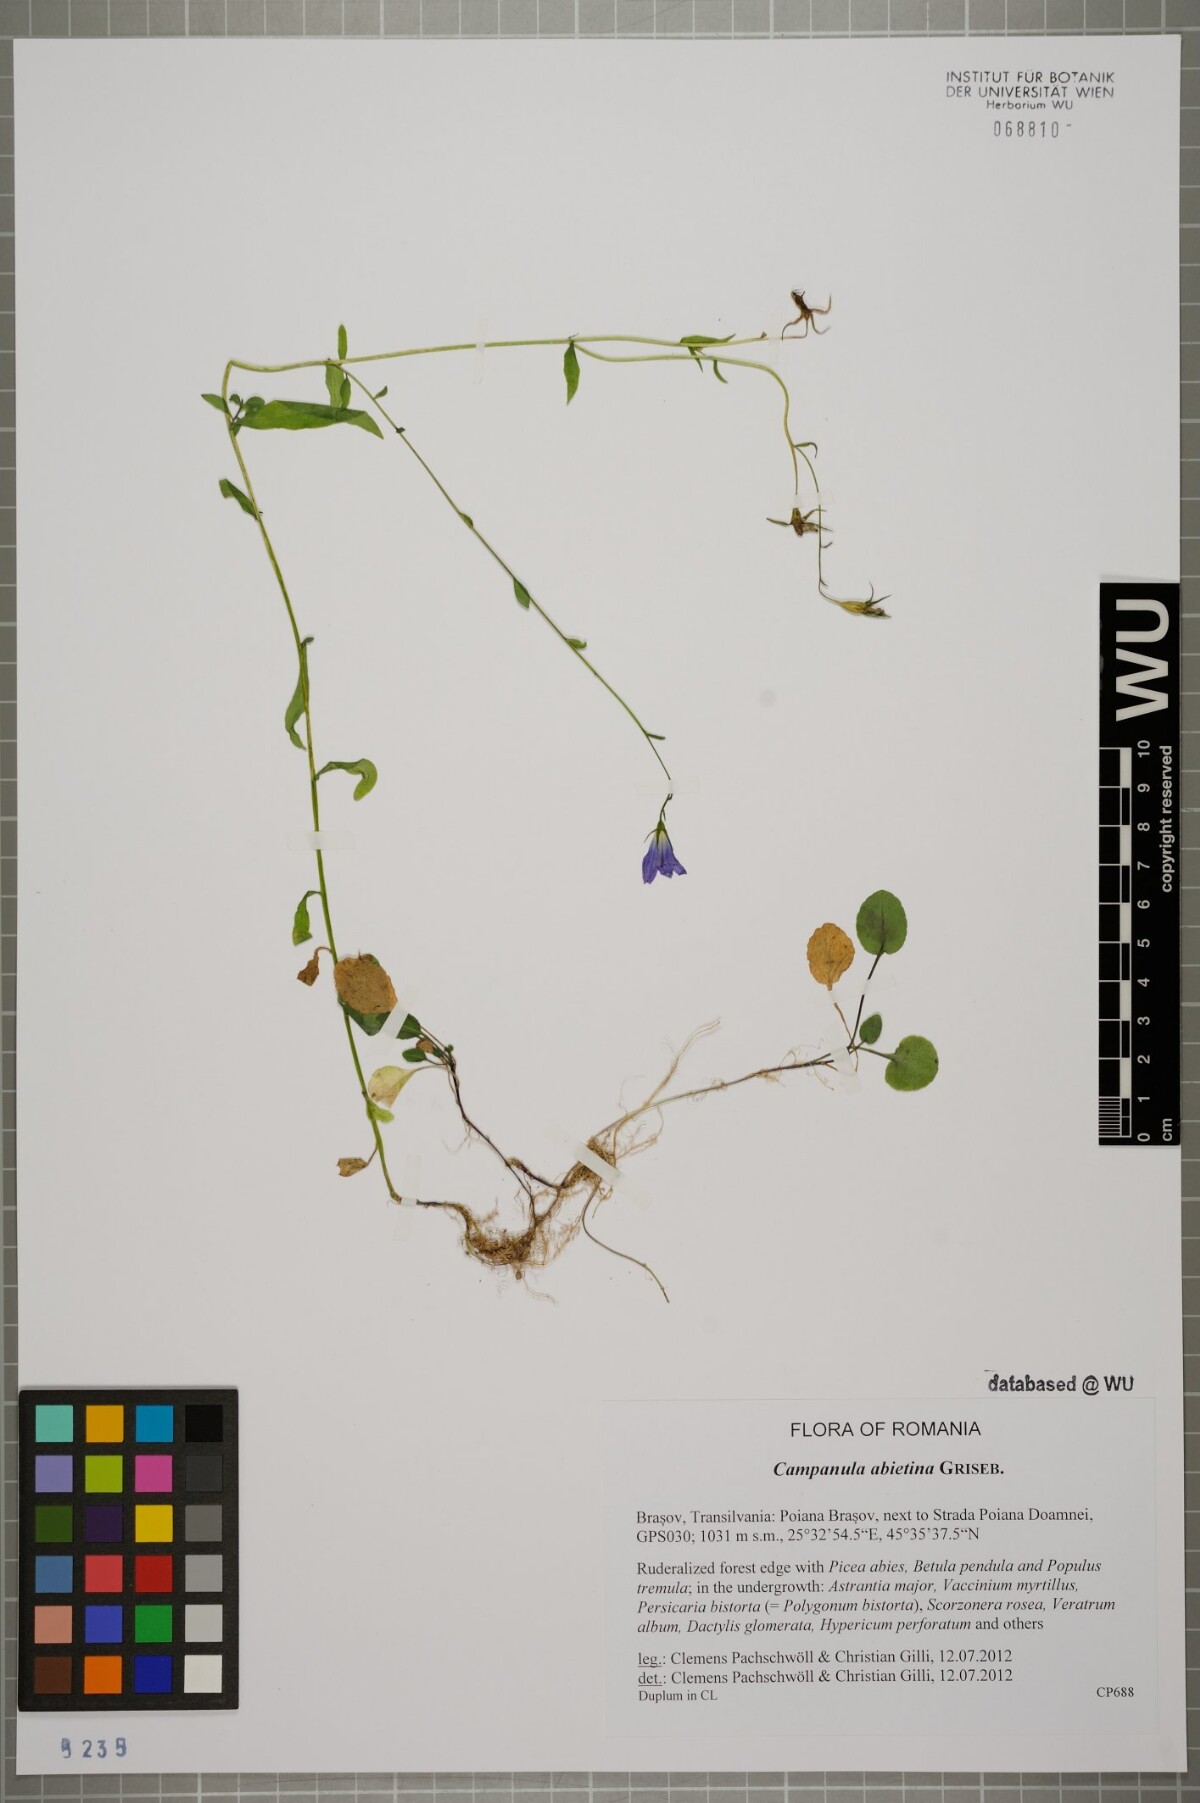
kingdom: Plantae
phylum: Tracheophyta
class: Magnoliopsida
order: Asterales
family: Campanulaceae
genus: Campanula
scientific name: Campanula patula
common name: Spreading bellflower
